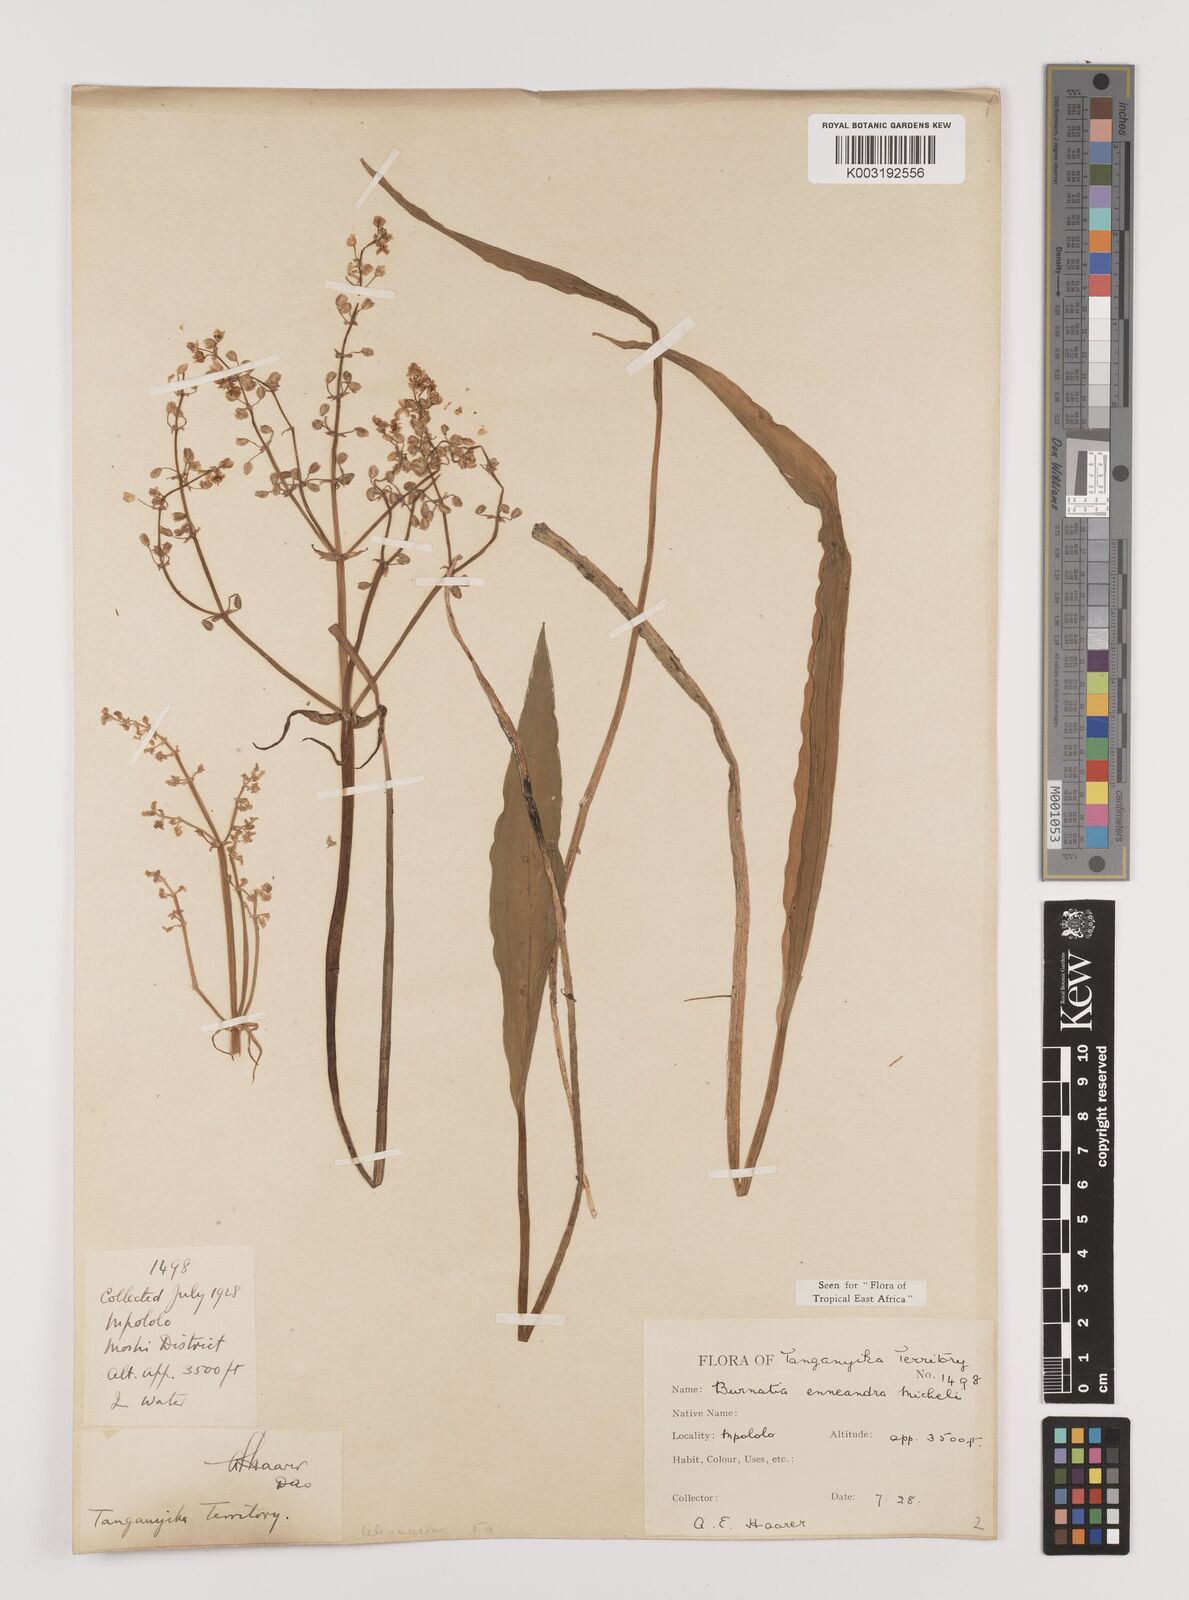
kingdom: Plantae
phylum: Tracheophyta
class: Liliopsida
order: Alismatales
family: Alismataceae
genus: Burnatia
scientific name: Burnatia enneandra
